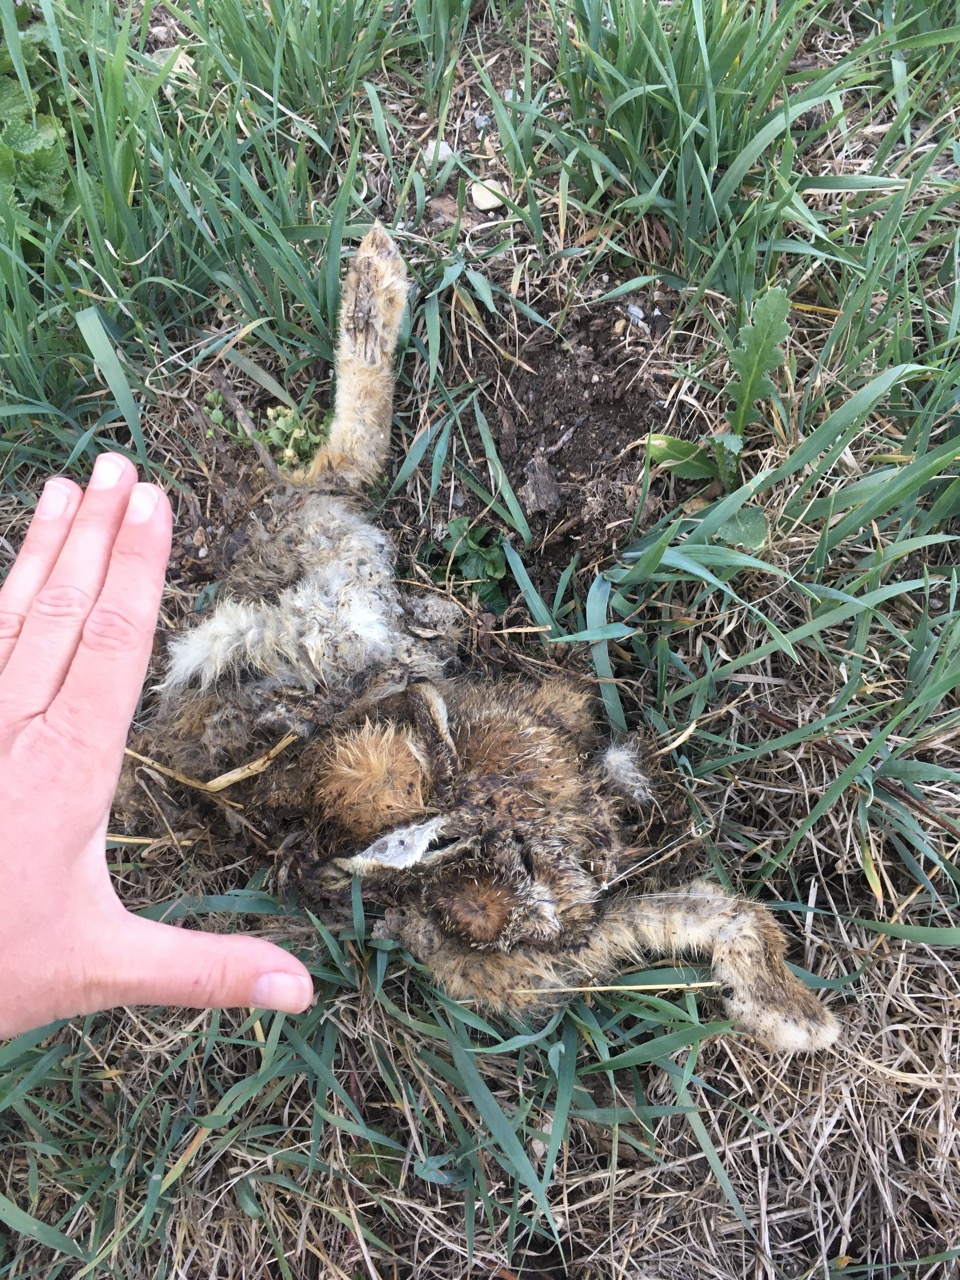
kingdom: Animalia
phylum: Chordata
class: Mammalia
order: Lagomorpha
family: Leporidae
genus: Lepus
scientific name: Lepus europaeus
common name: European hare
